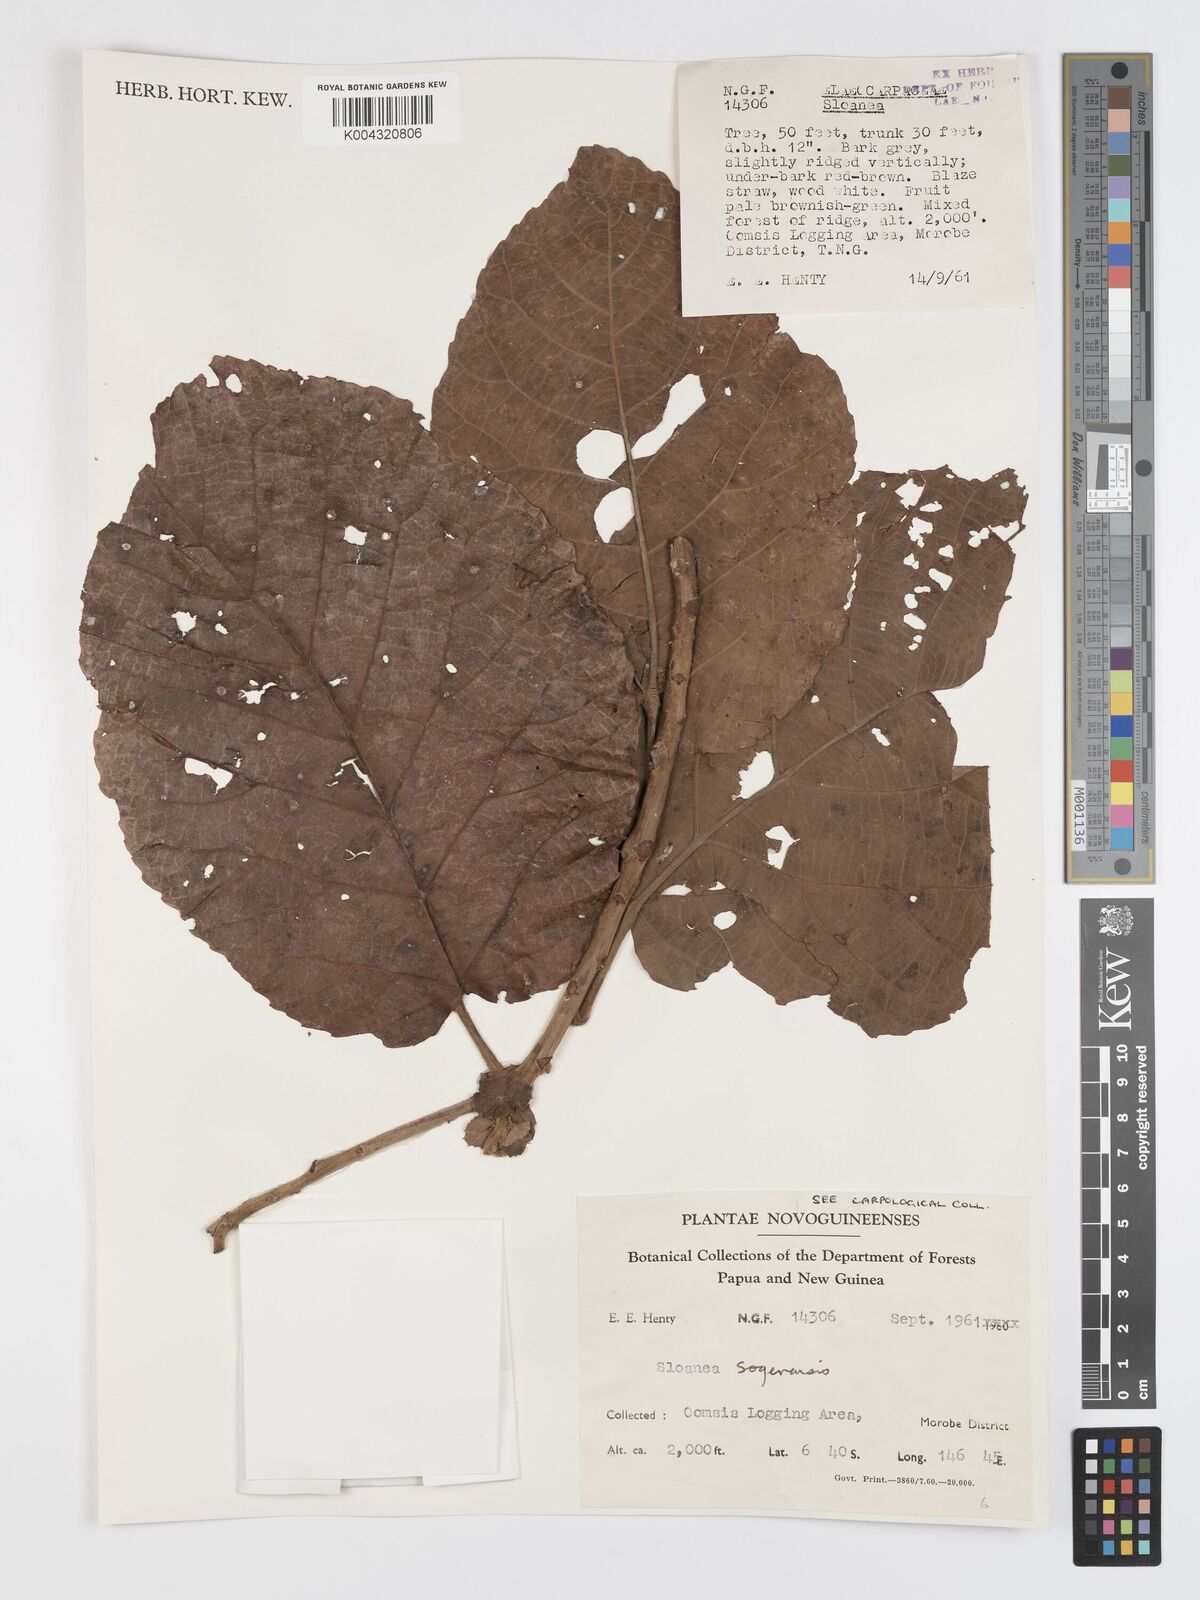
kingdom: Plantae
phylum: Tracheophyta
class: Magnoliopsida
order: Oxalidales
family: Elaeocarpaceae
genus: Sloanea
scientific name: Sloanea sogerensis
